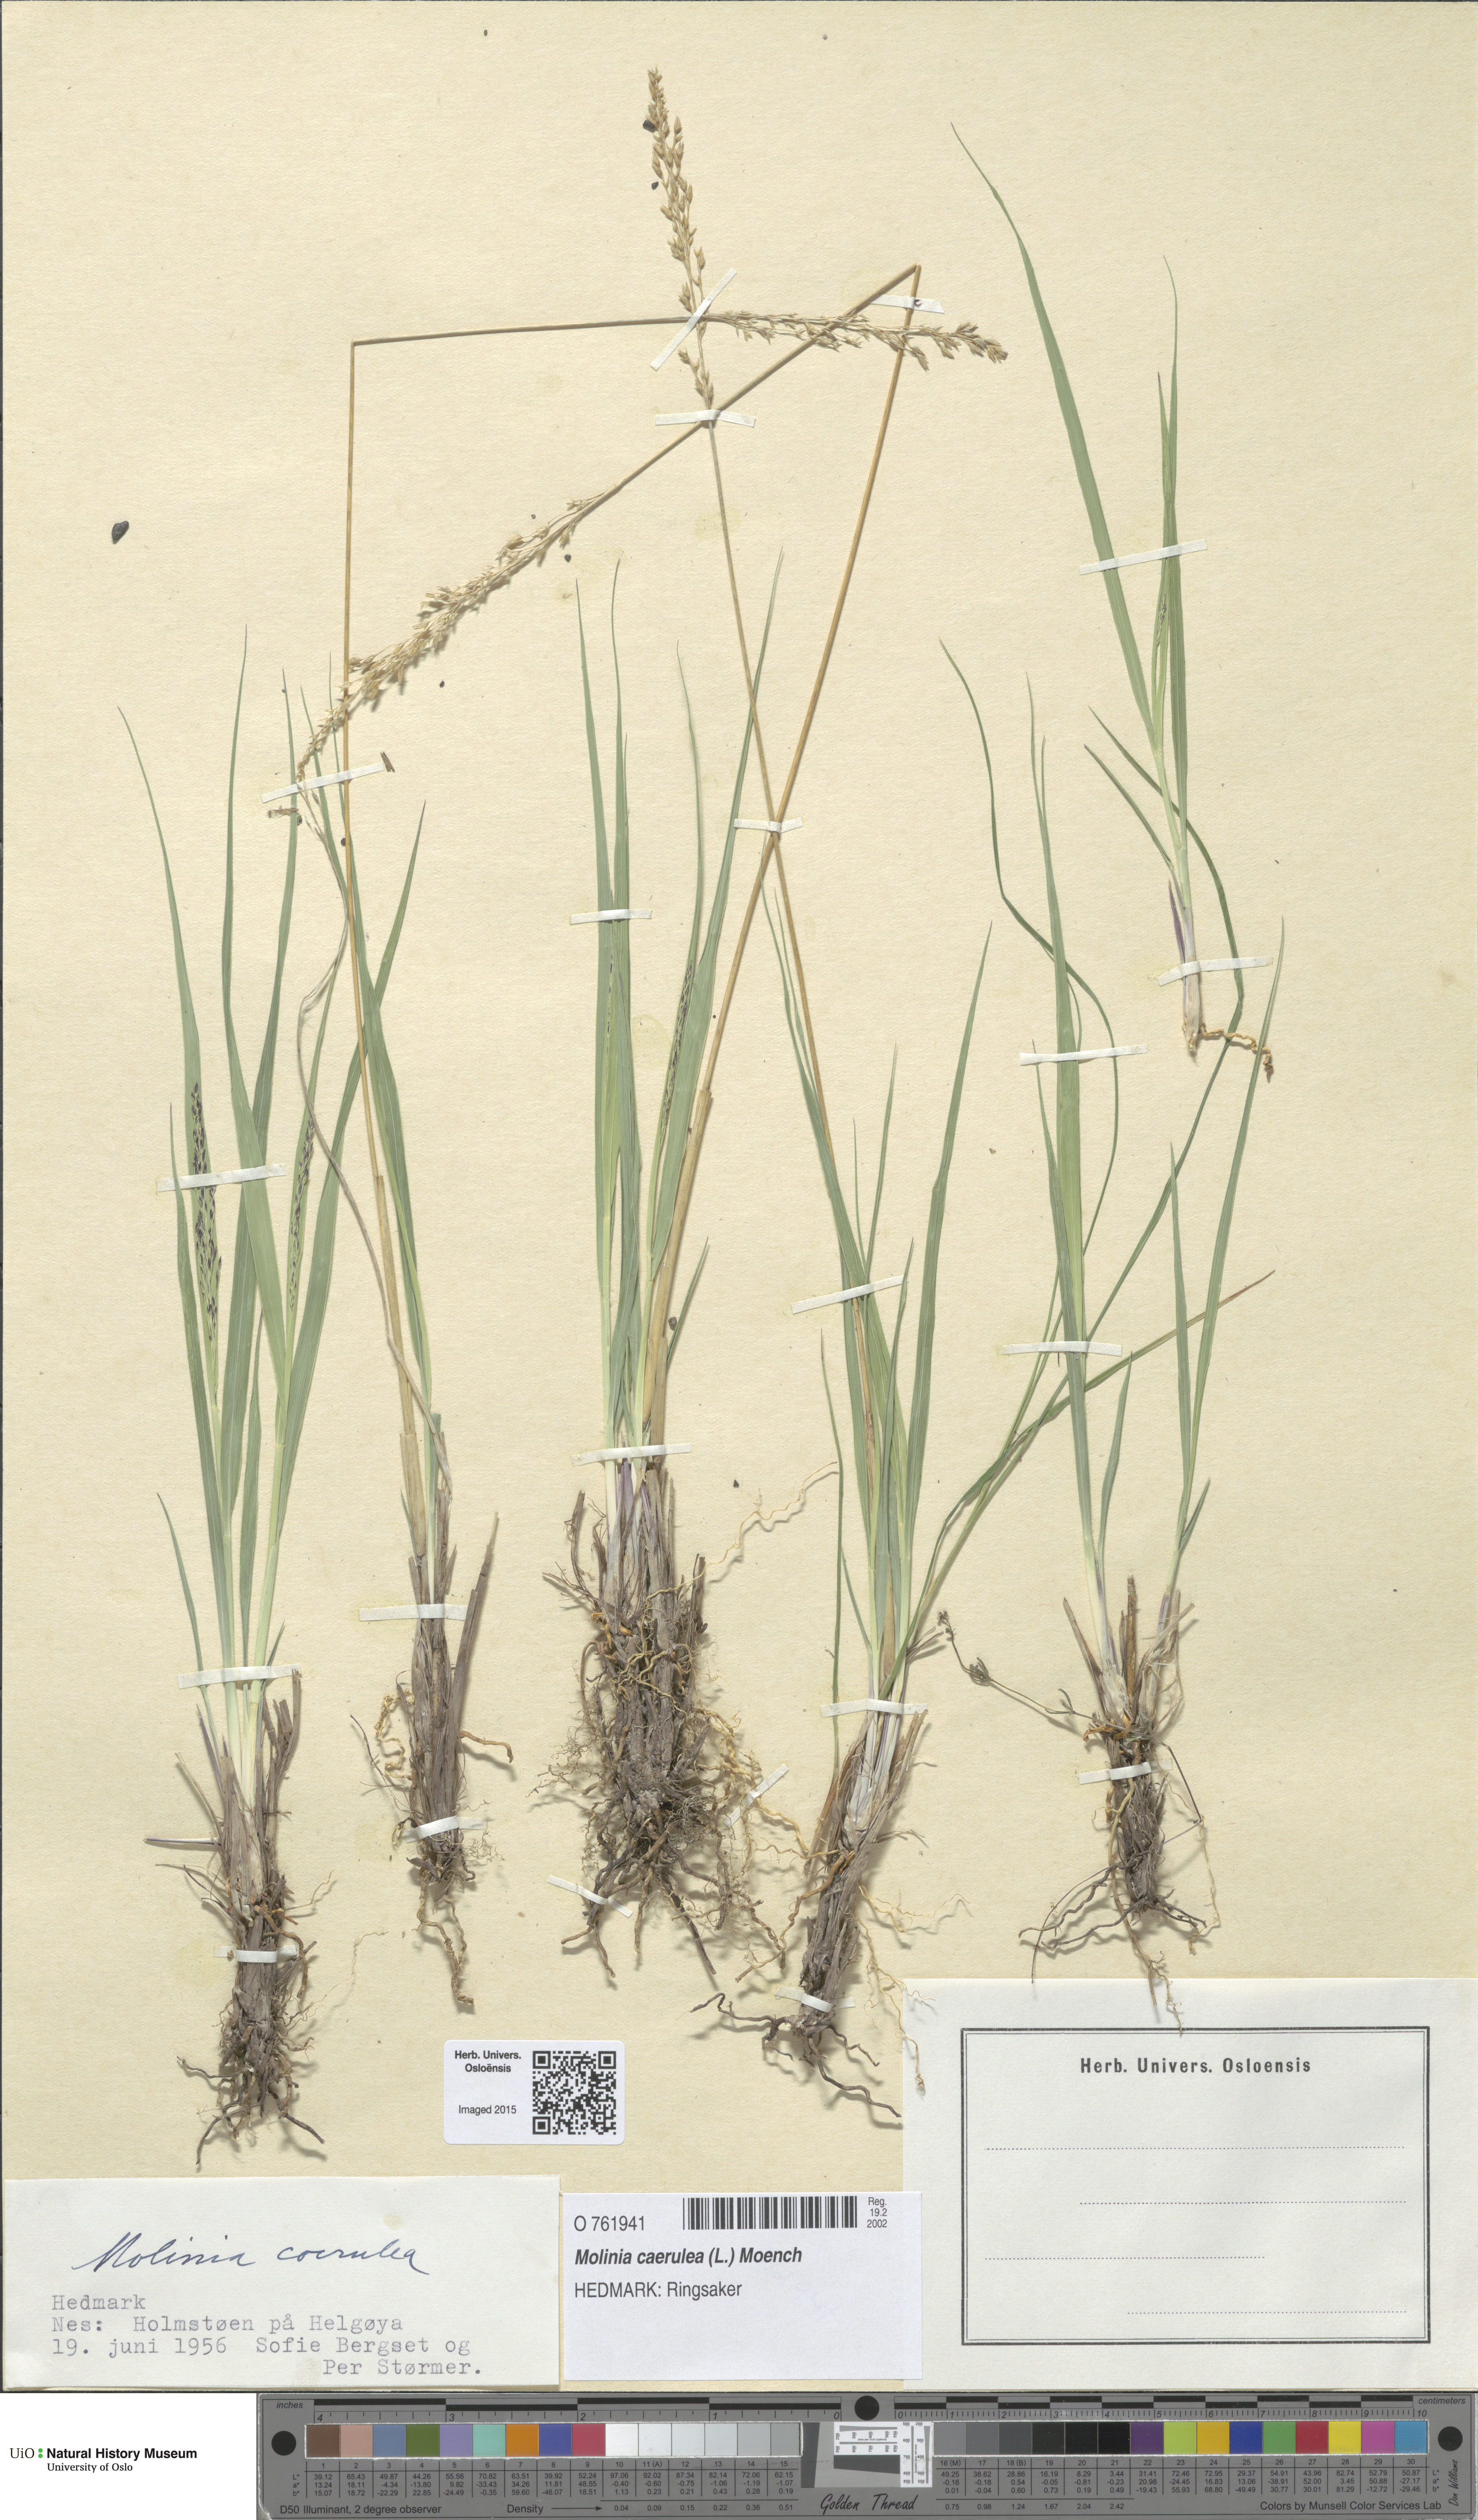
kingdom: Plantae
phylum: Tracheophyta
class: Liliopsida
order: Poales
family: Poaceae
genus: Molinia
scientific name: Molinia caerulea
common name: Purple moor-grass
